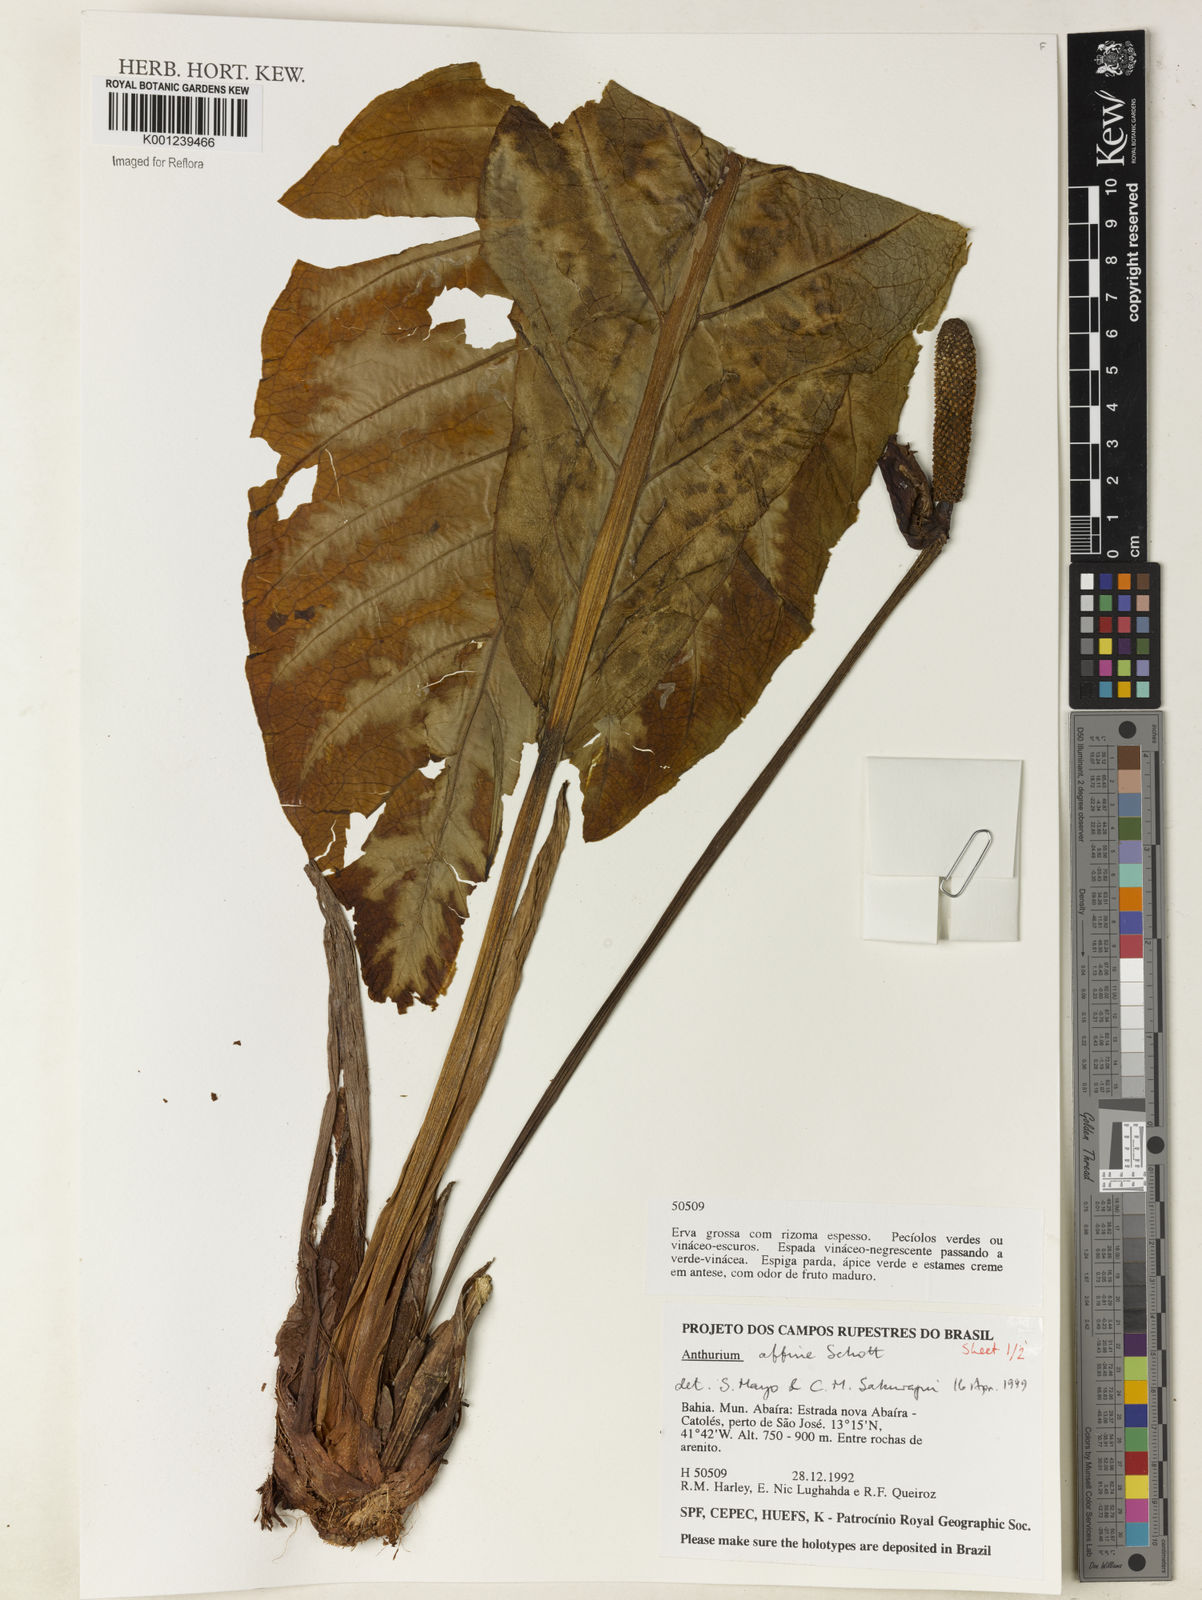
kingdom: Plantae
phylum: Tracheophyta
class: Liliopsida
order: Alismatales
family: Araceae
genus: Anthurium
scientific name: Anthurium affine
